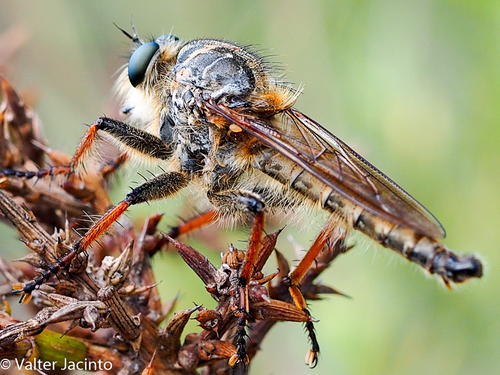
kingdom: Animalia
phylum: Arthropoda
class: Insecta
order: Diptera
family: Asilidae
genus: Machimus
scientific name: Machimus chrysitis
